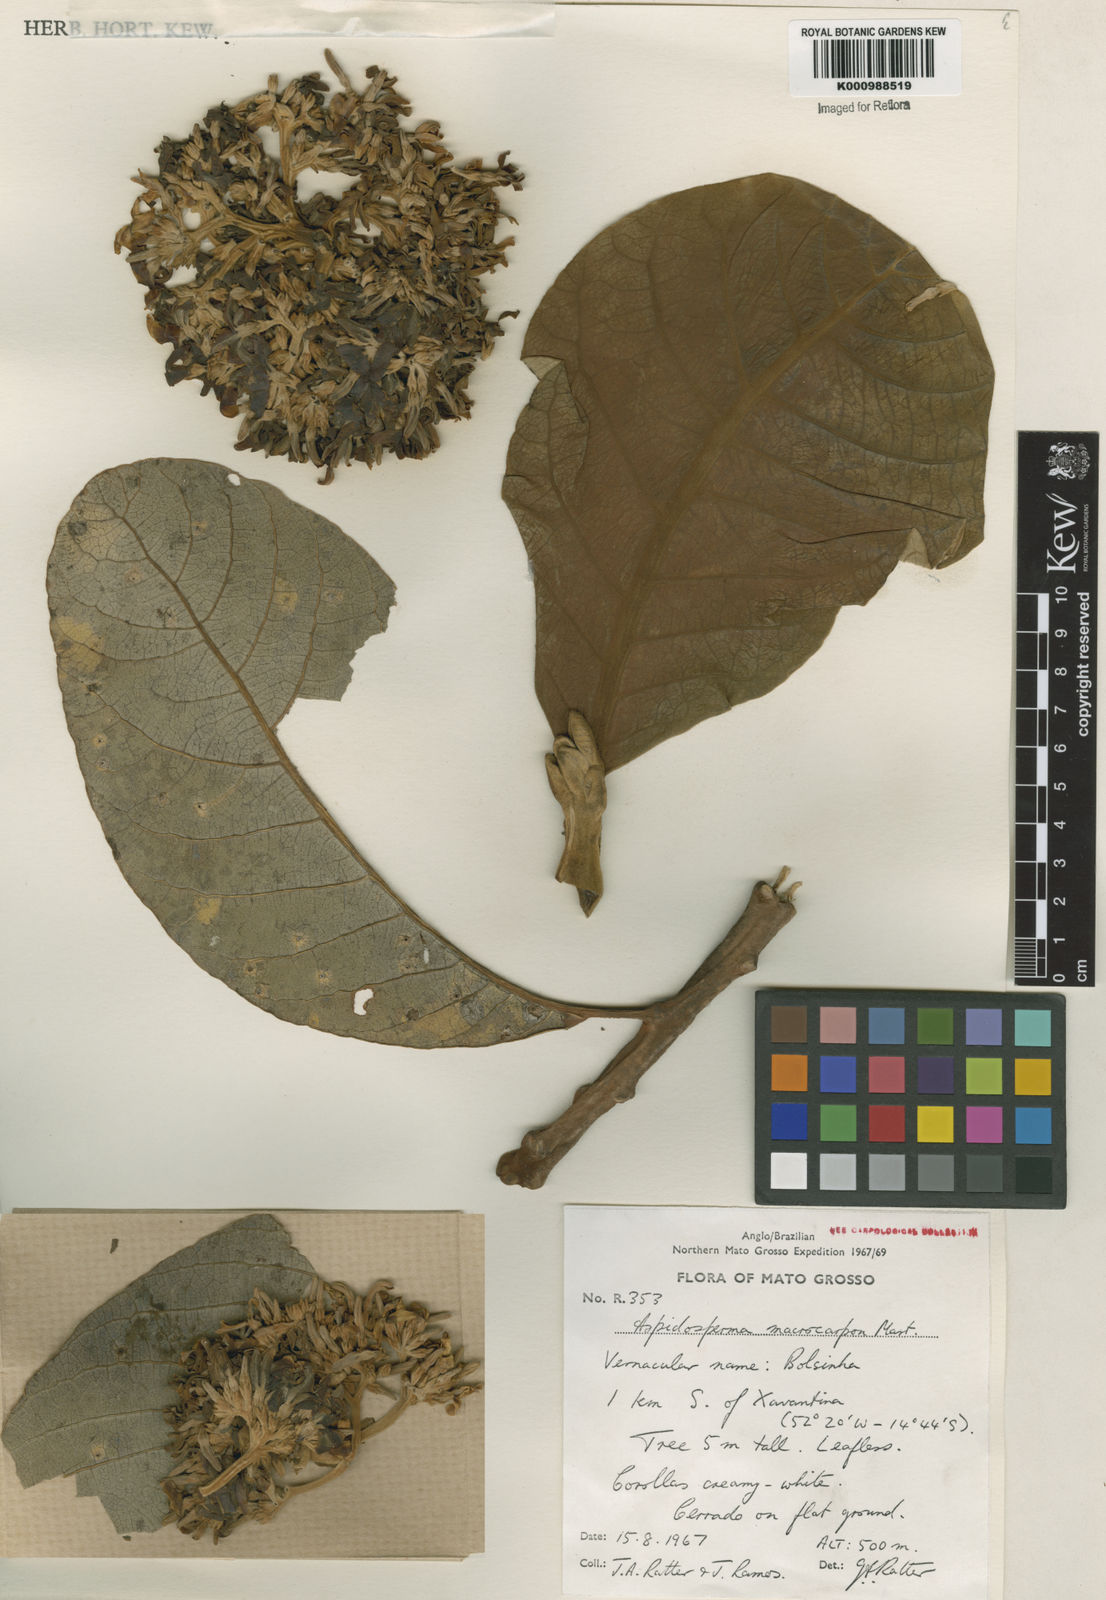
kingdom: Plantae
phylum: Tracheophyta
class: Magnoliopsida
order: Gentianales
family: Apocynaceae
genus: Aspidosperma
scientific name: Aspidosperma macrocarpon
